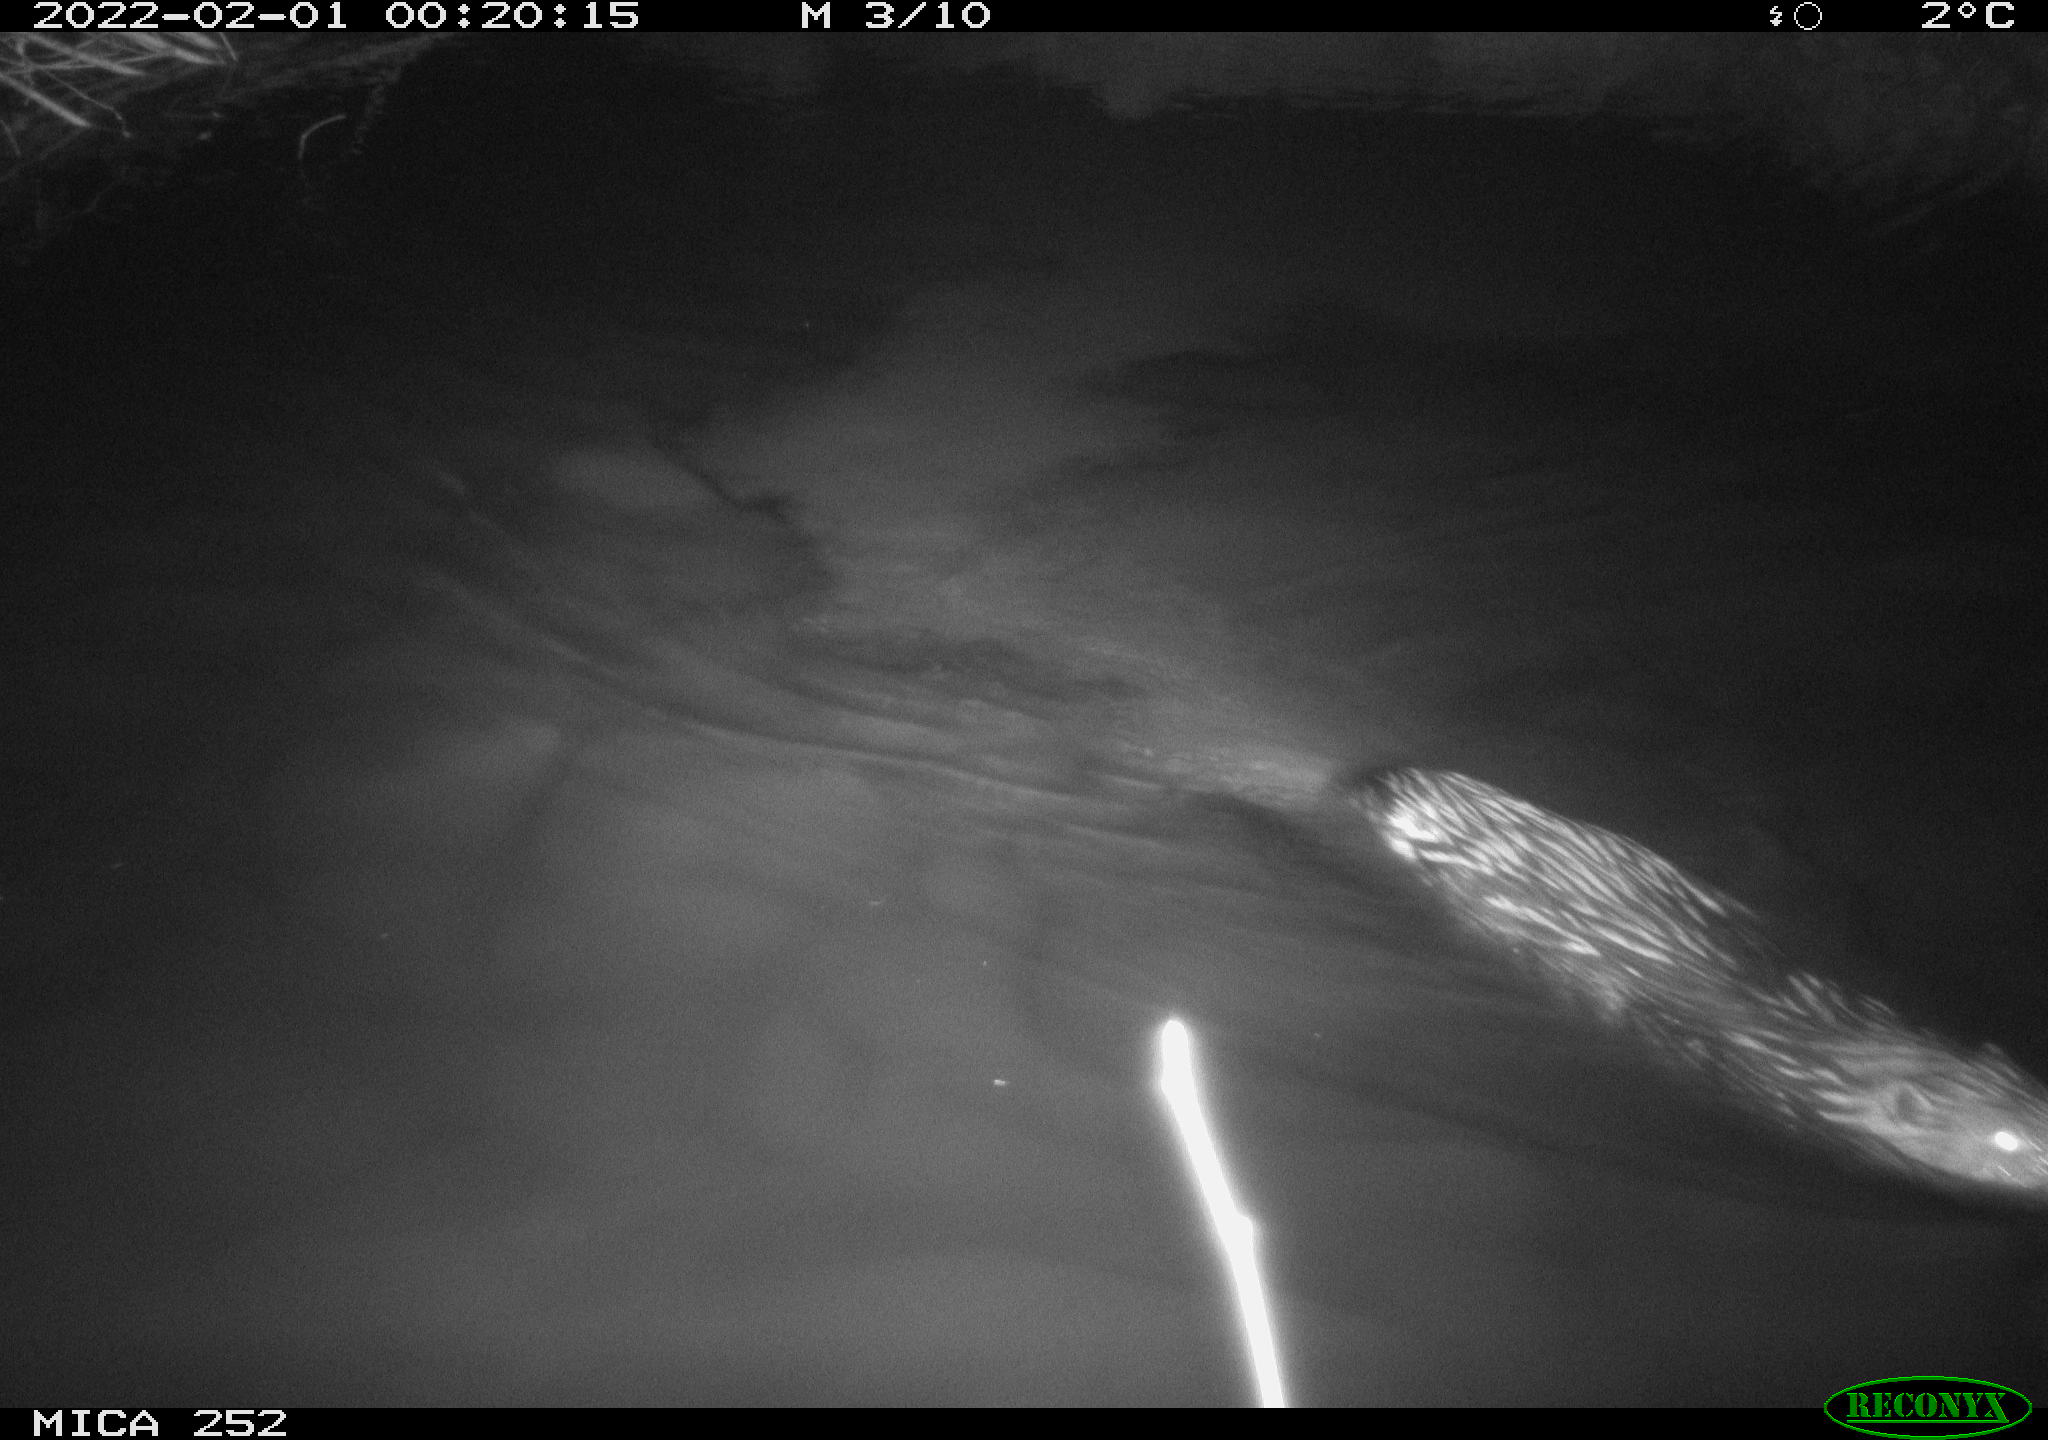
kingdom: Animalia
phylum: Chordata
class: Mammalia
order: Rodentia
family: Castoridae
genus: Castor
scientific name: Castor fiber
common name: Eurasian beaver
